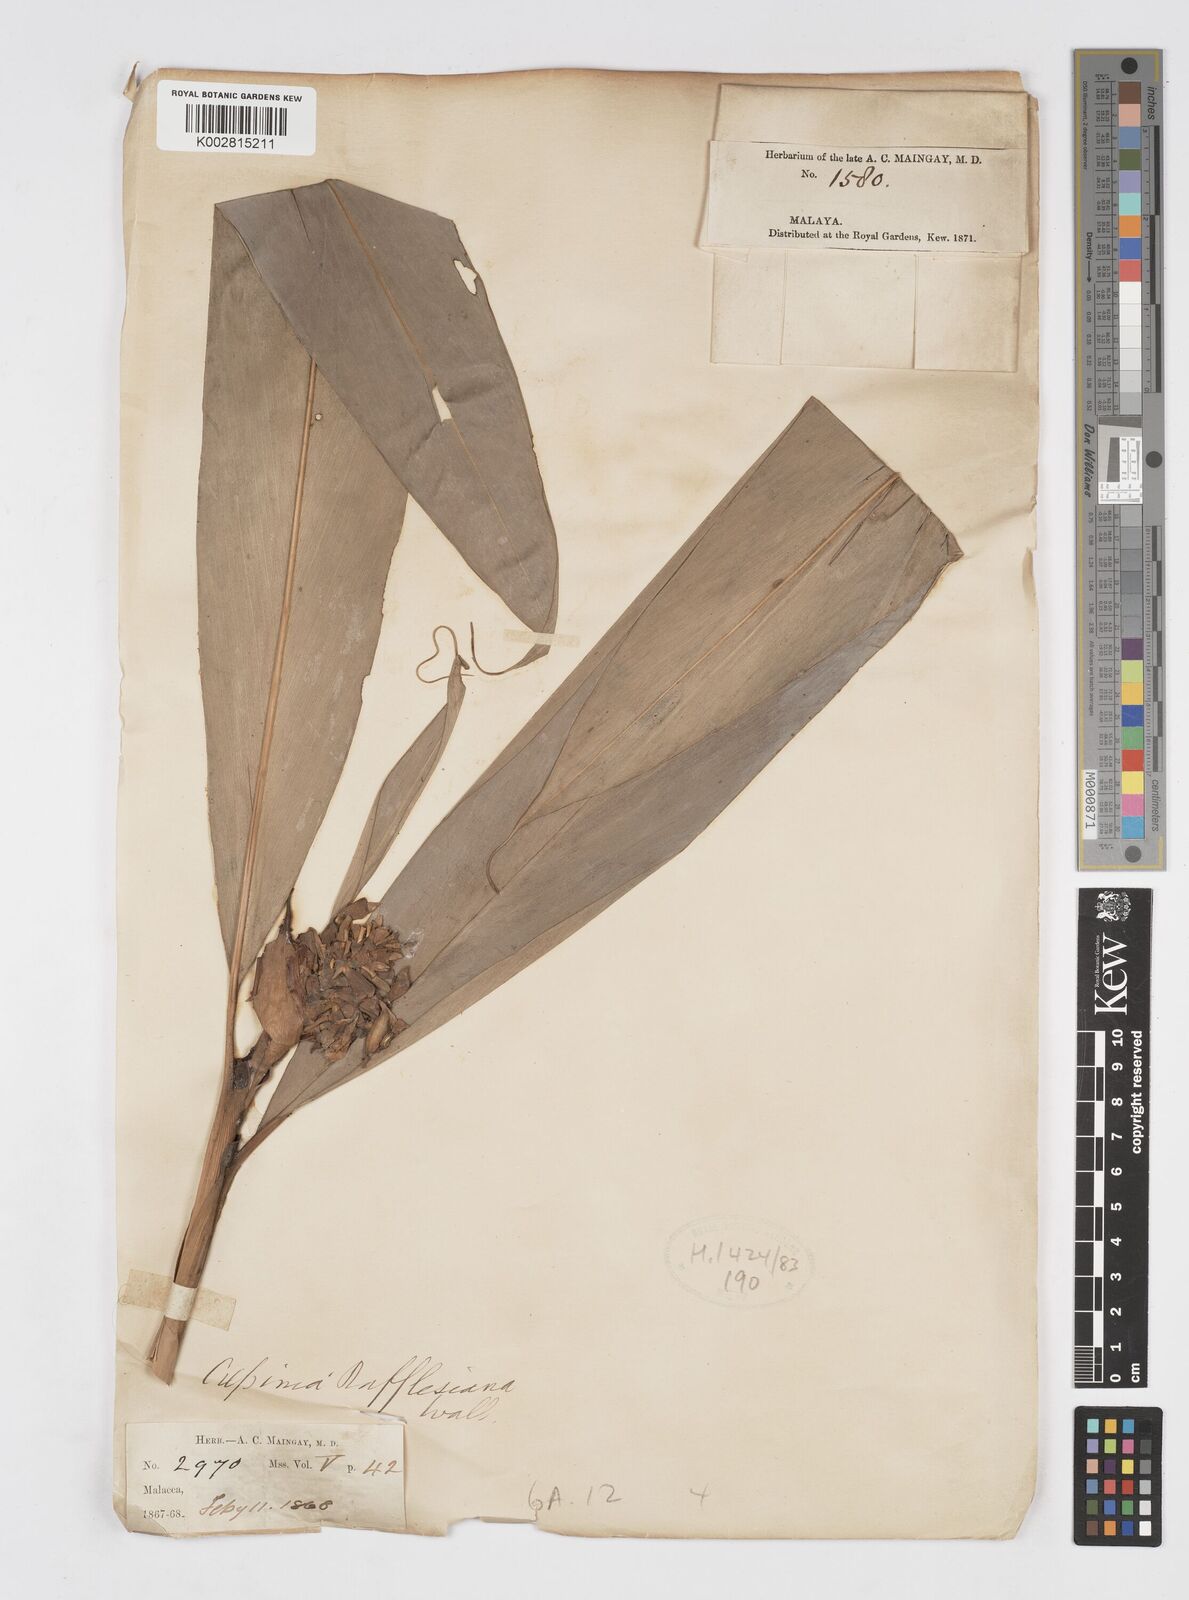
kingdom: Plantae
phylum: Tracheophyta
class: Liliopsida
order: Zingiberales
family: Zingiberaceae
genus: Alpinia
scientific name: Alpinia rafflesiana
